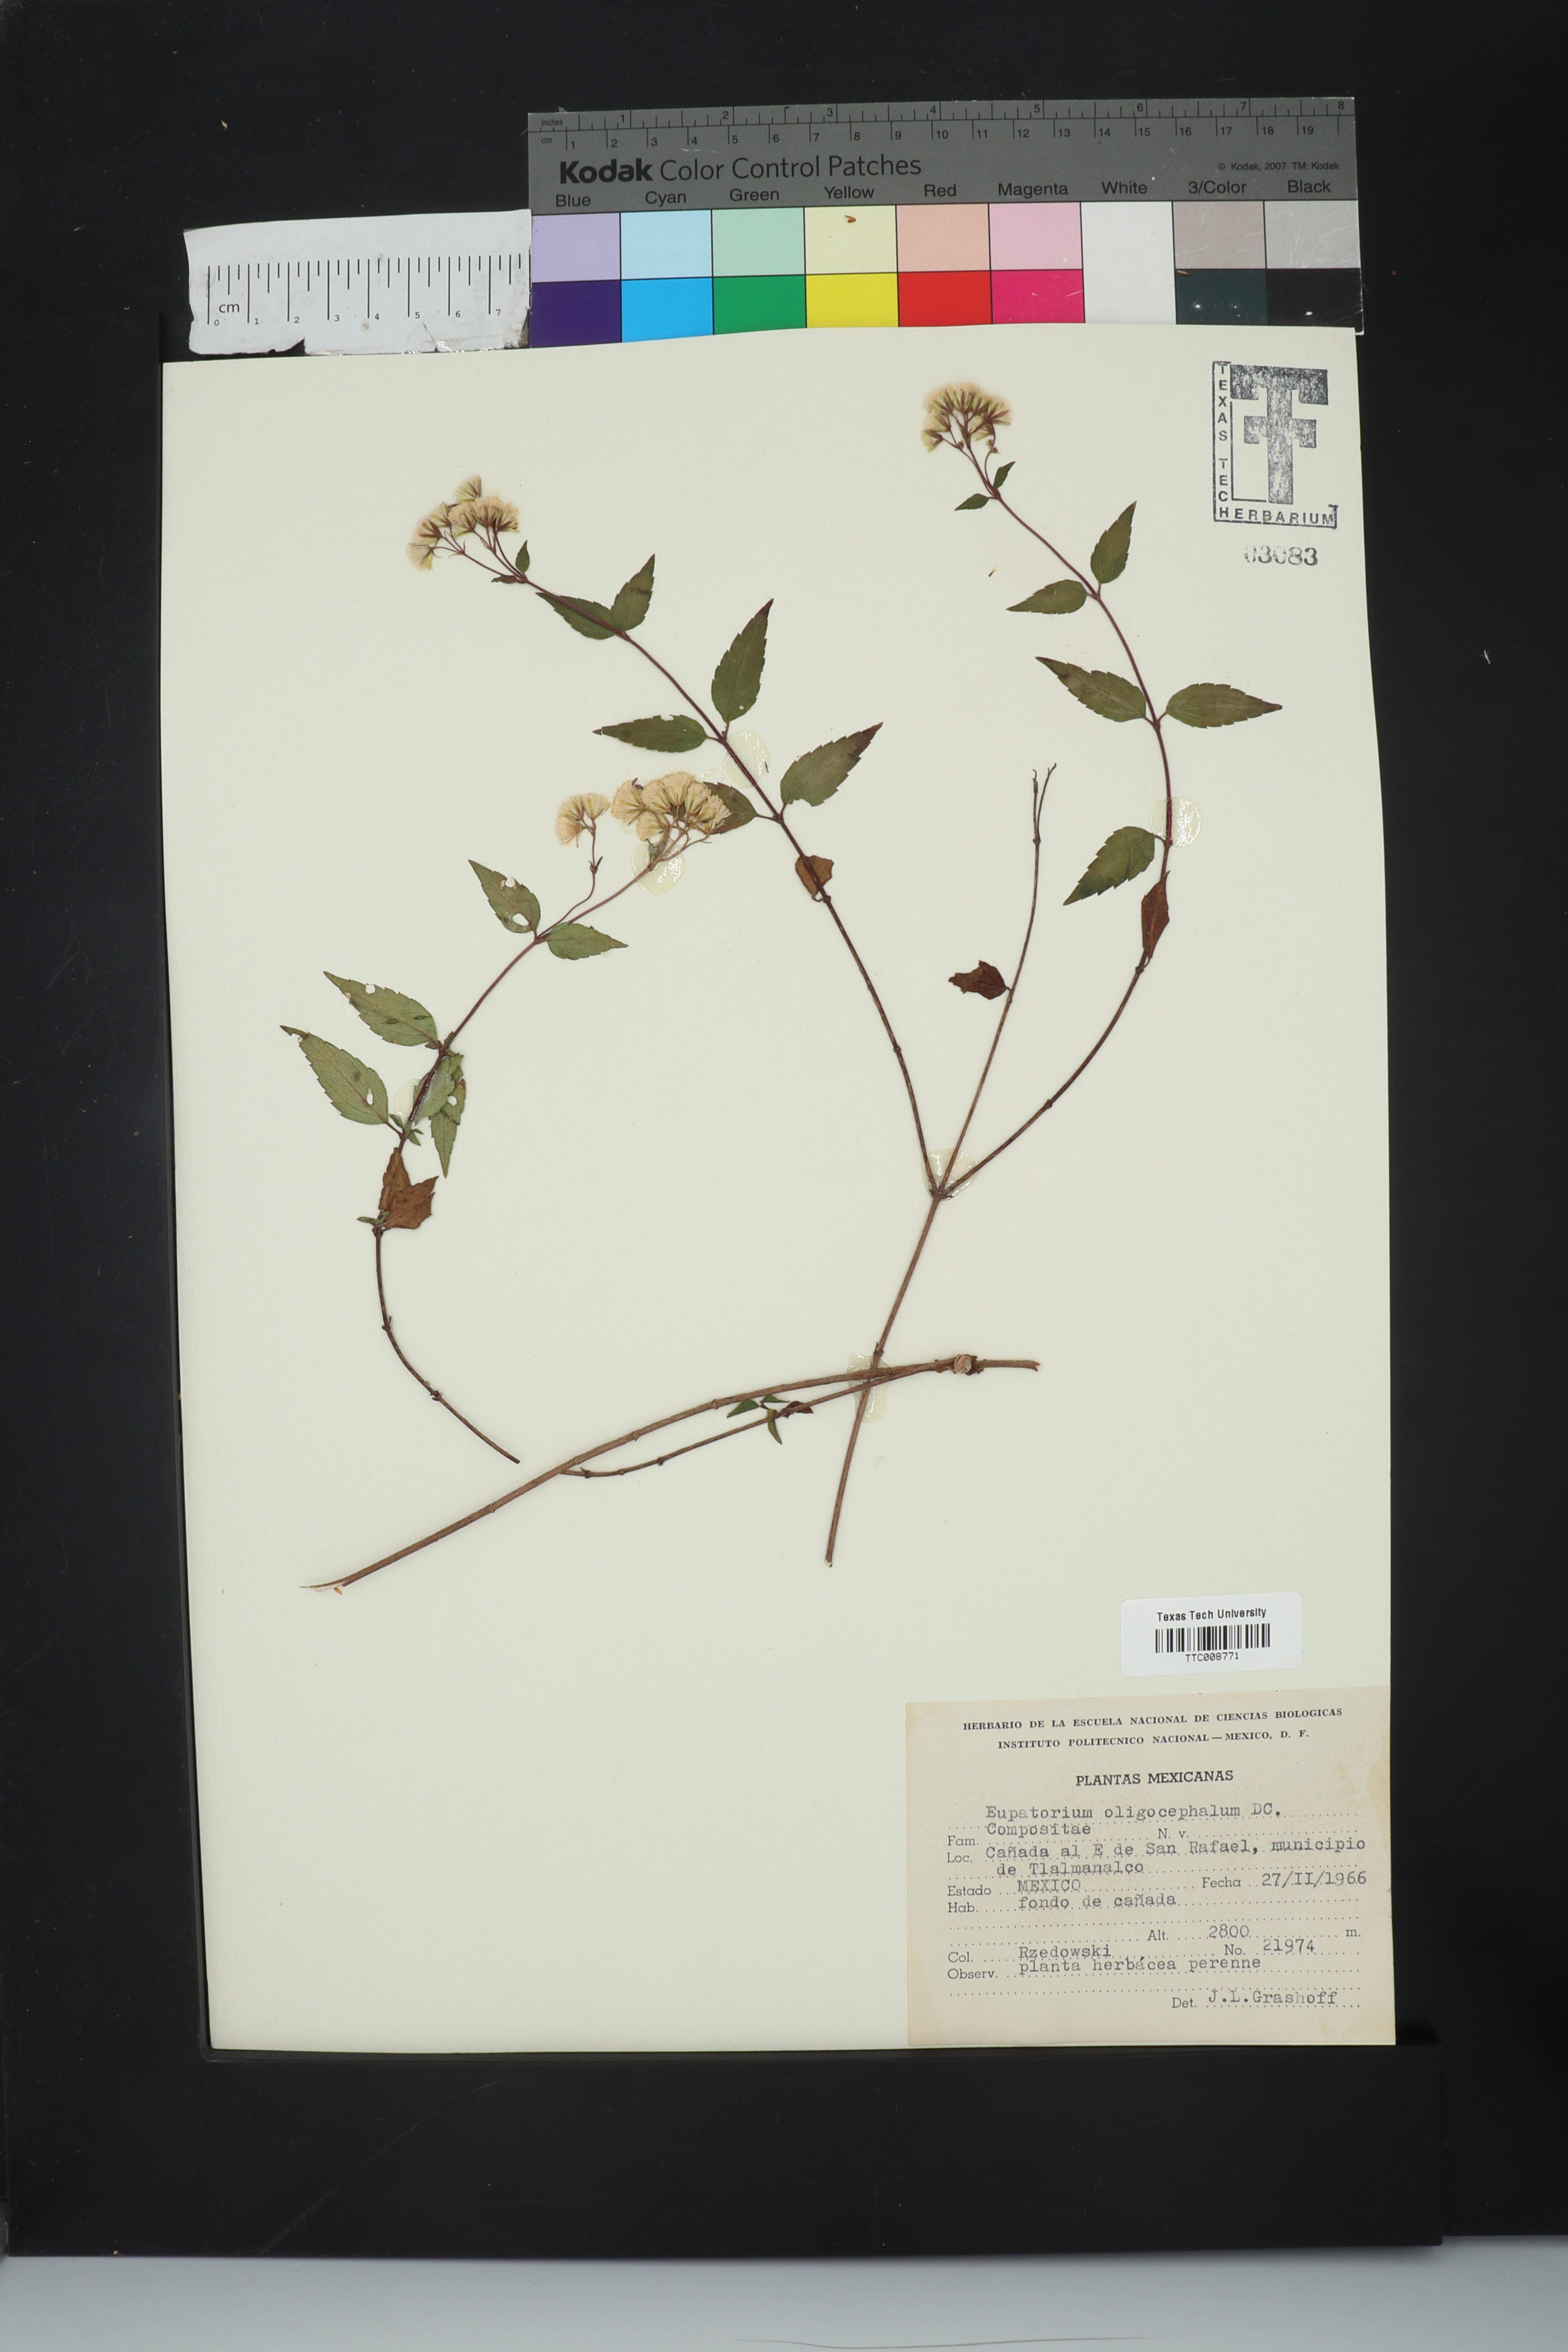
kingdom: Plantae
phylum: Tracheophyta
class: Magnoliopsida
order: Asterales
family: Asteraceae
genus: Ageratina
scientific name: Ageratina oligocephala
